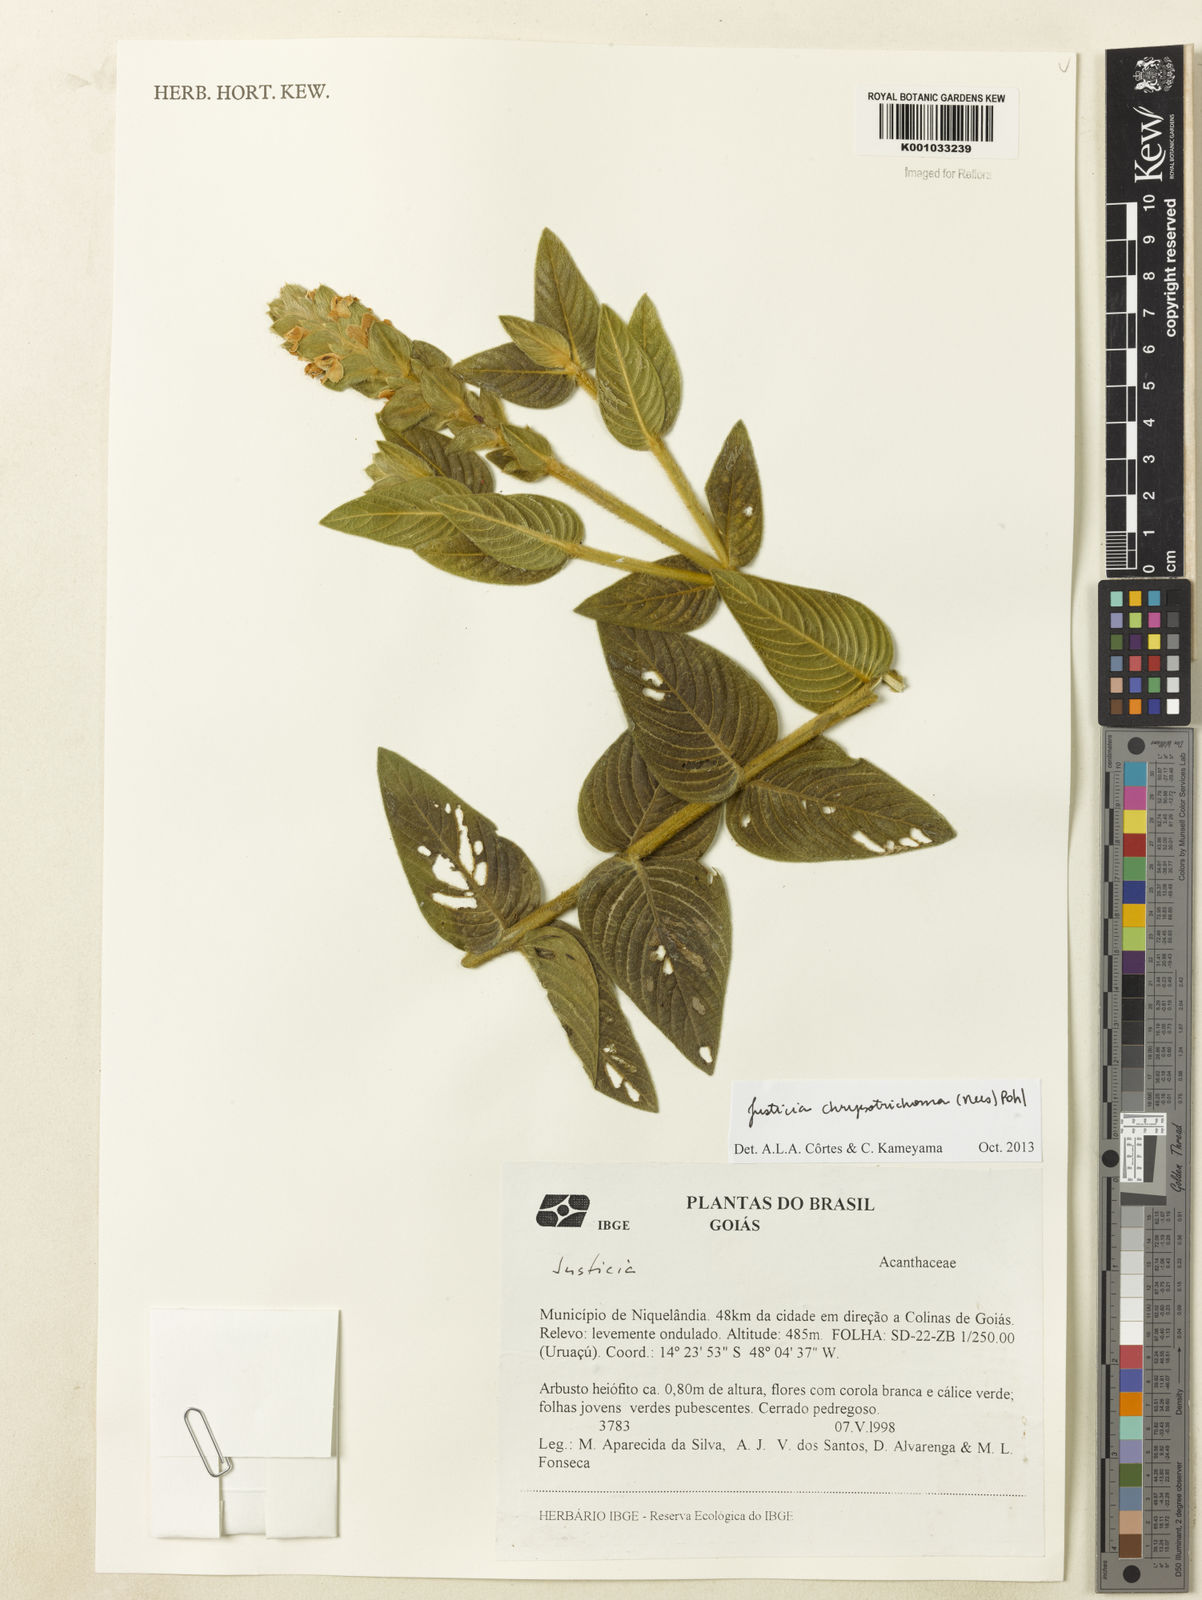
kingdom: Plantae
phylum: Tracheophyta
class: Magnoliopsida
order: Lamiales
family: Acanthaceae
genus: Justicia
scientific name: Justicia chrysotrichoma
